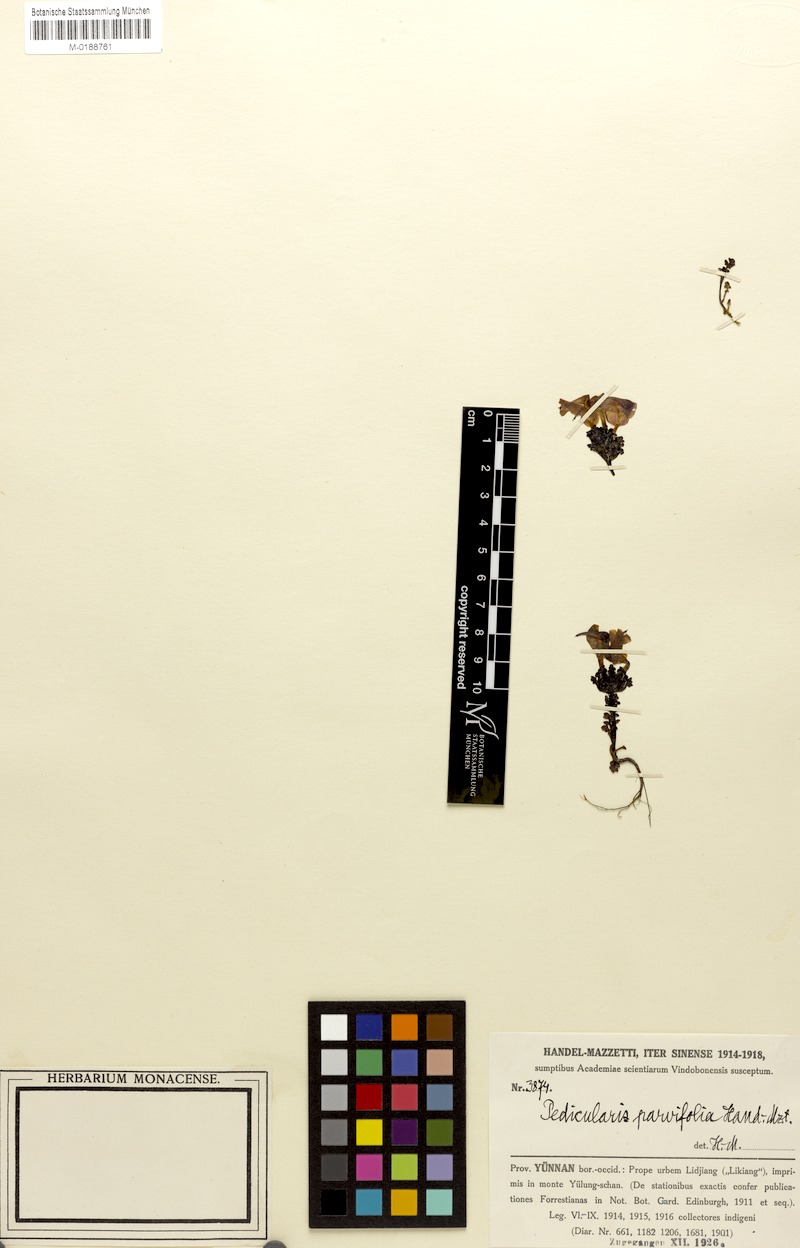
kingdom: Plantae
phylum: Tracheophyta
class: Magnoliopsida
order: Lamiales
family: Orobanchaceae
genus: Pedicularis
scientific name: Pedicularis confertiflora
